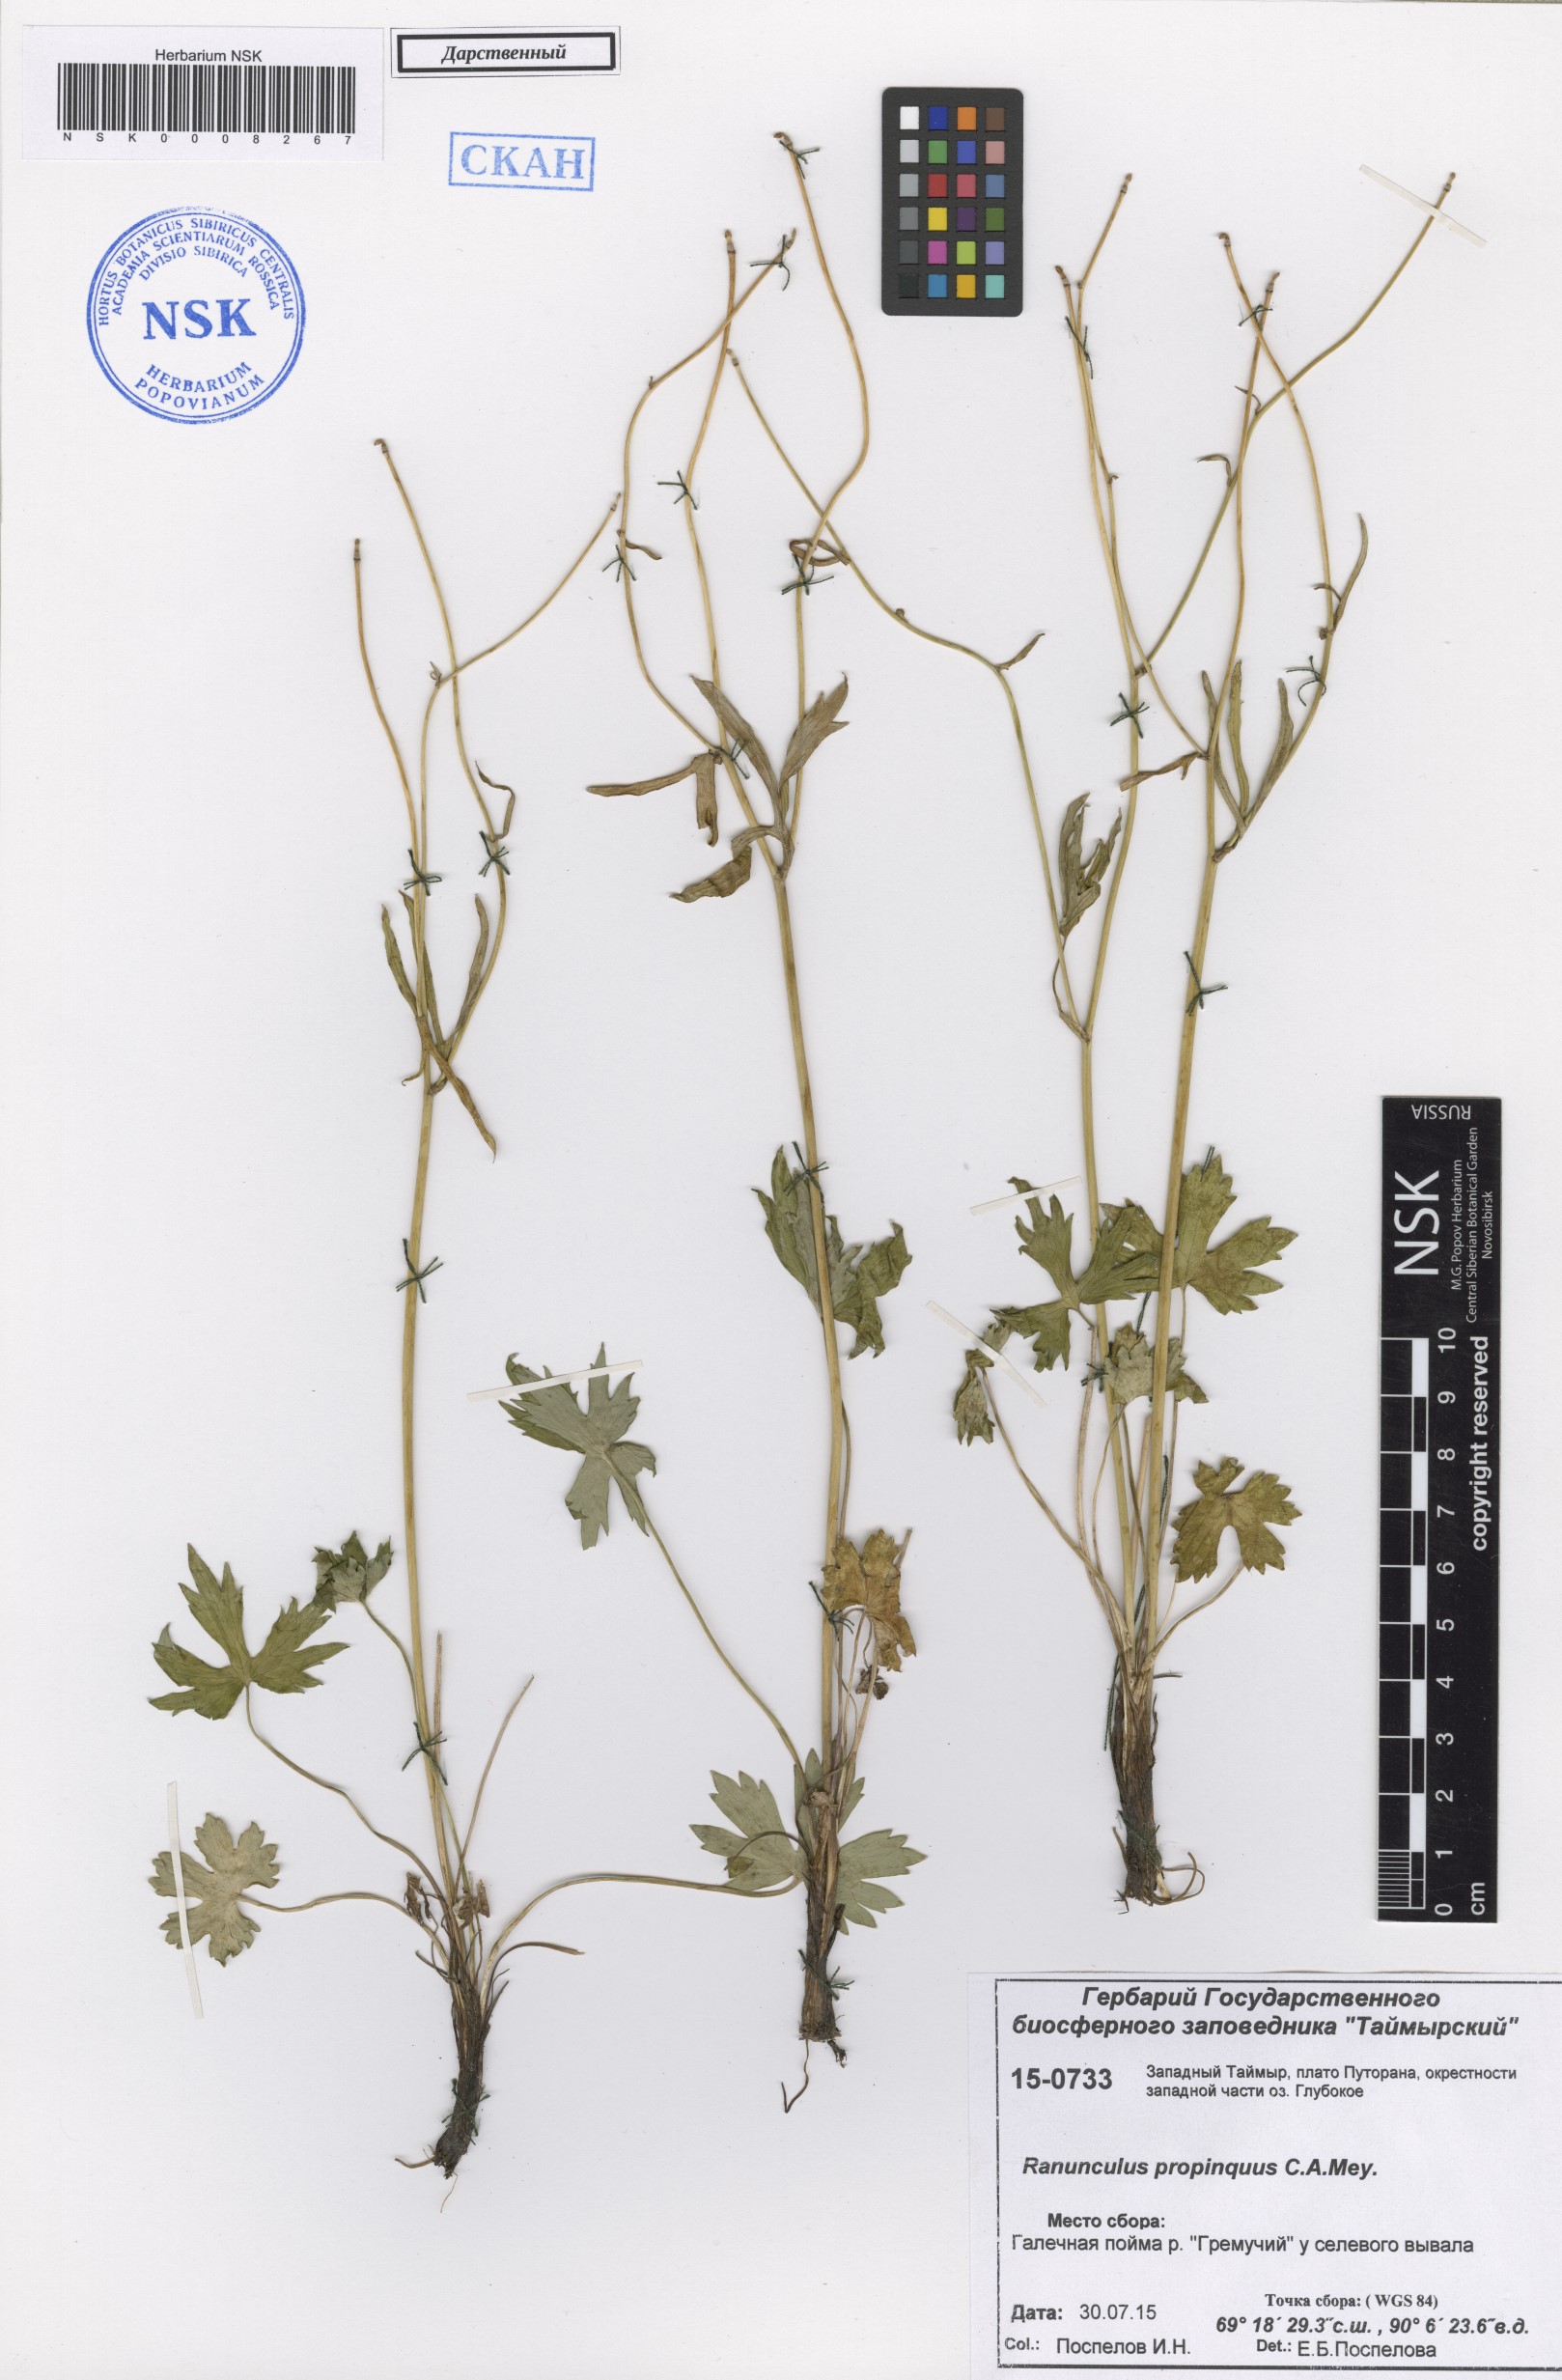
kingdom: Plantae
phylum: Tracheophyta
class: Magnoliopsida
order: Ranunculales
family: Ranunculaceae
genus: Ranunculus
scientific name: Ranunculus propinquus
